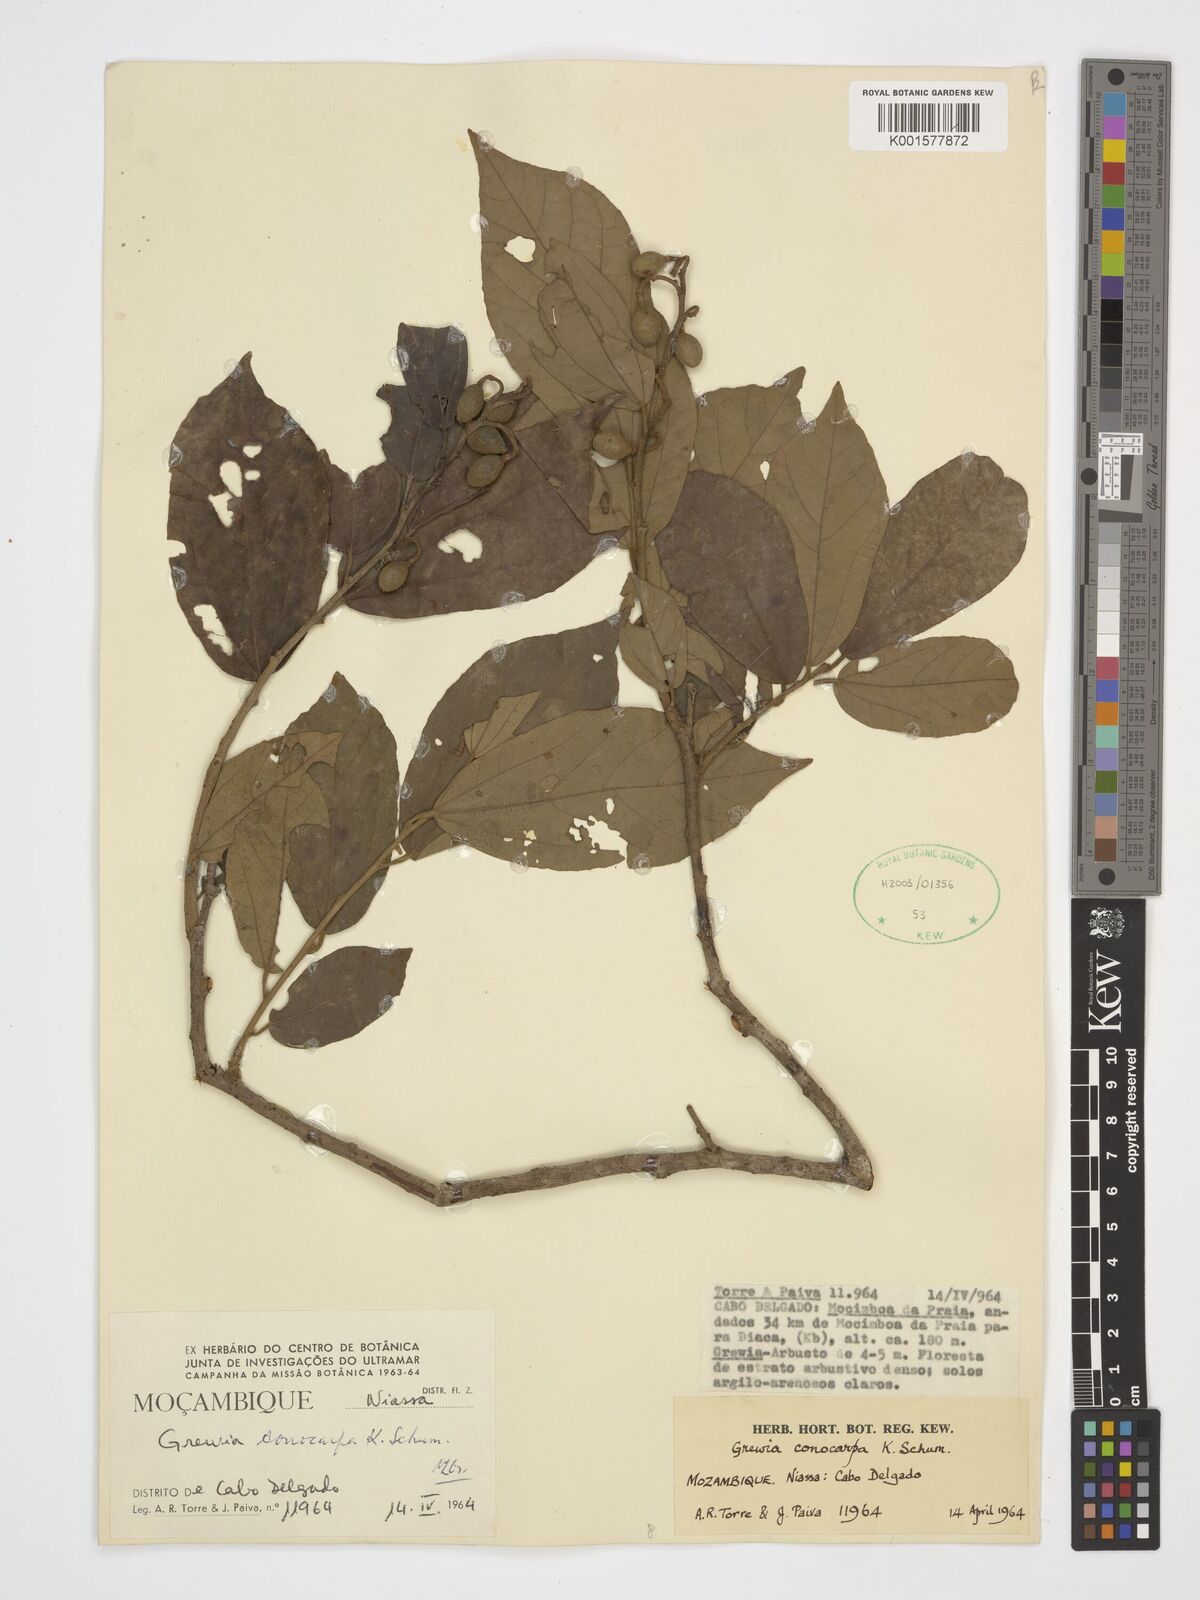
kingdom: Plantae
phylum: Tracheophyta
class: Magnoliopsida
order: Malvales
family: Malvaceae
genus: Microcos
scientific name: Microcos conocarpa
